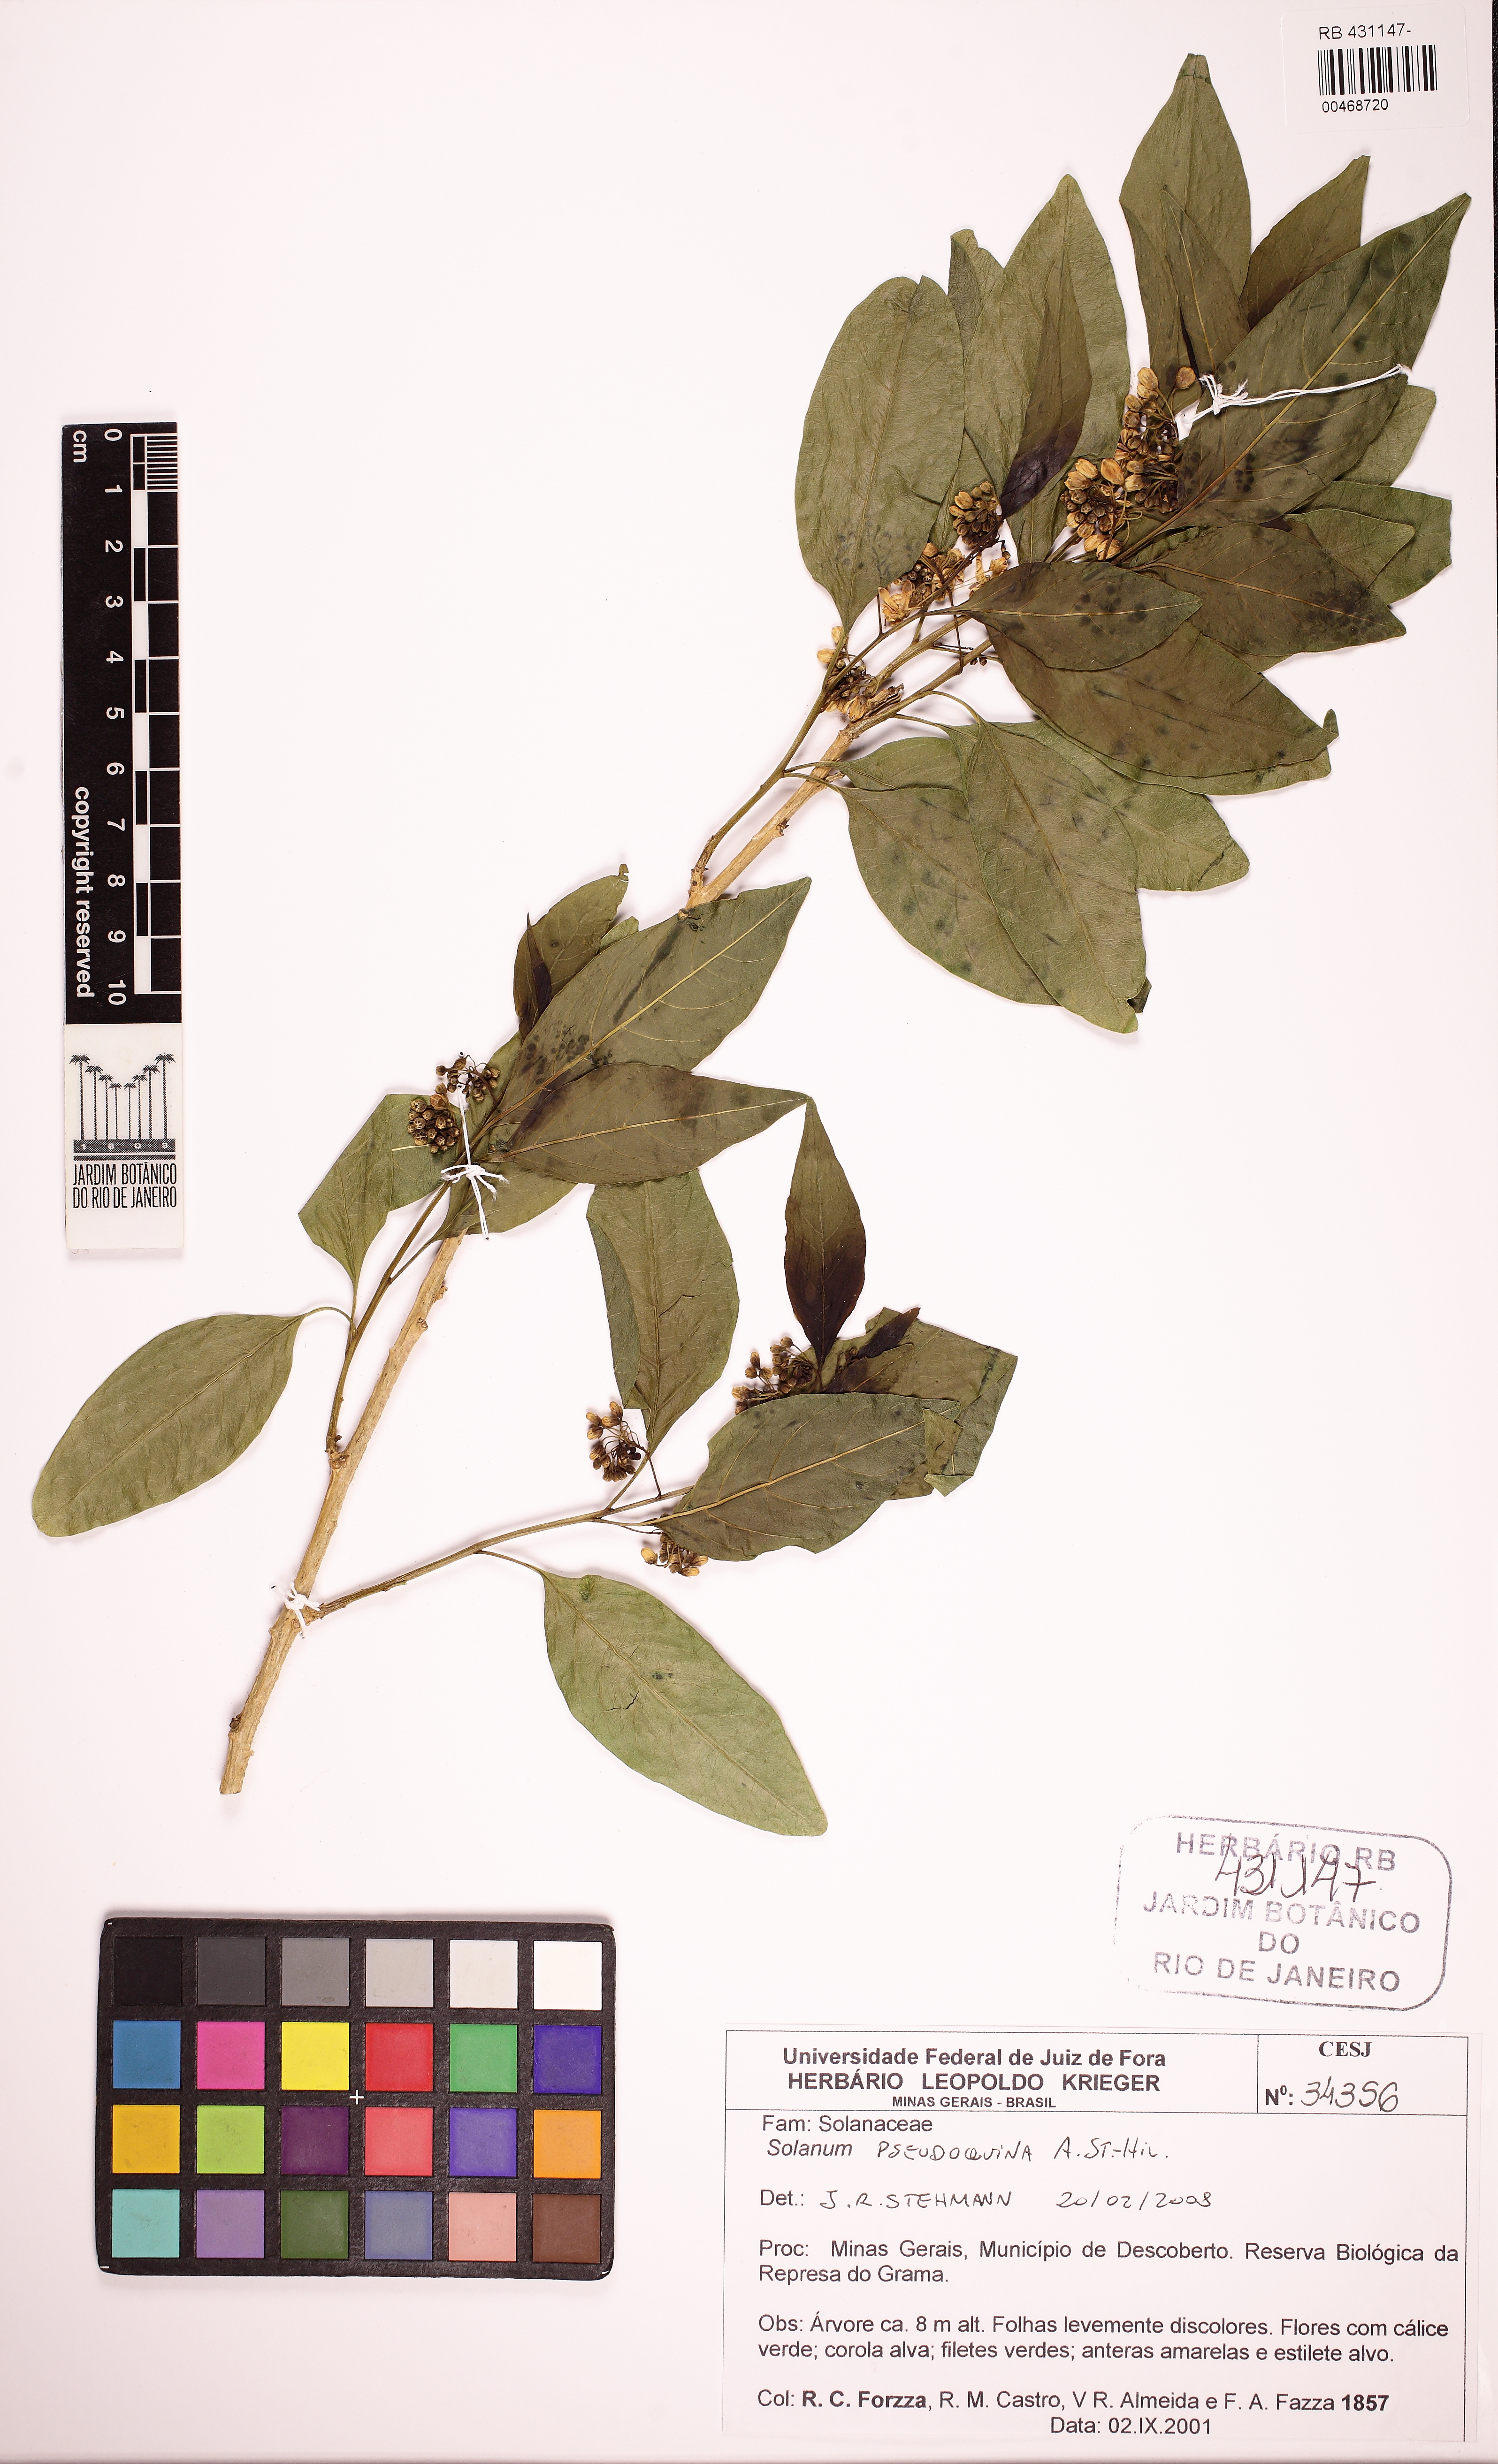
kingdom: Plantae
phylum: Tracheophyta
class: Magnoliopsida
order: Solanales
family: Solanaceae
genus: Solanum
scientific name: Solanum pseudoquina
